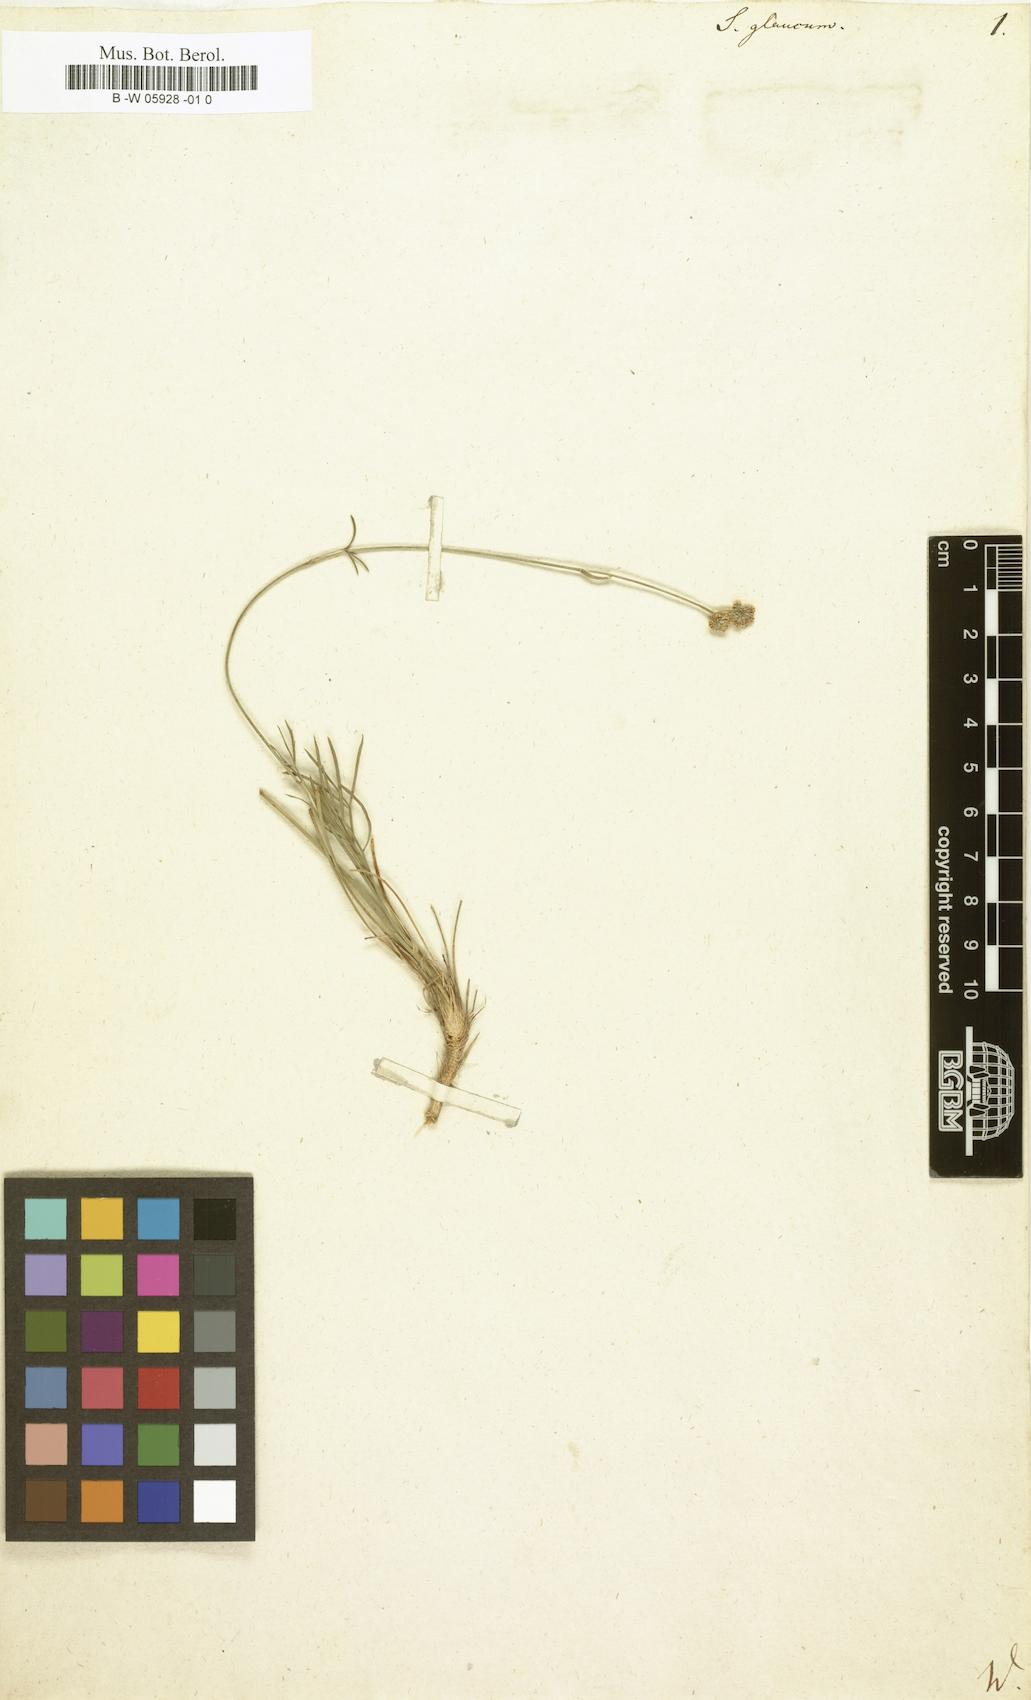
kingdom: Plantae
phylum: Tracheophyta
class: Magnoliopsida
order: Apiales
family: Apiaceae
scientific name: Apiaceae
